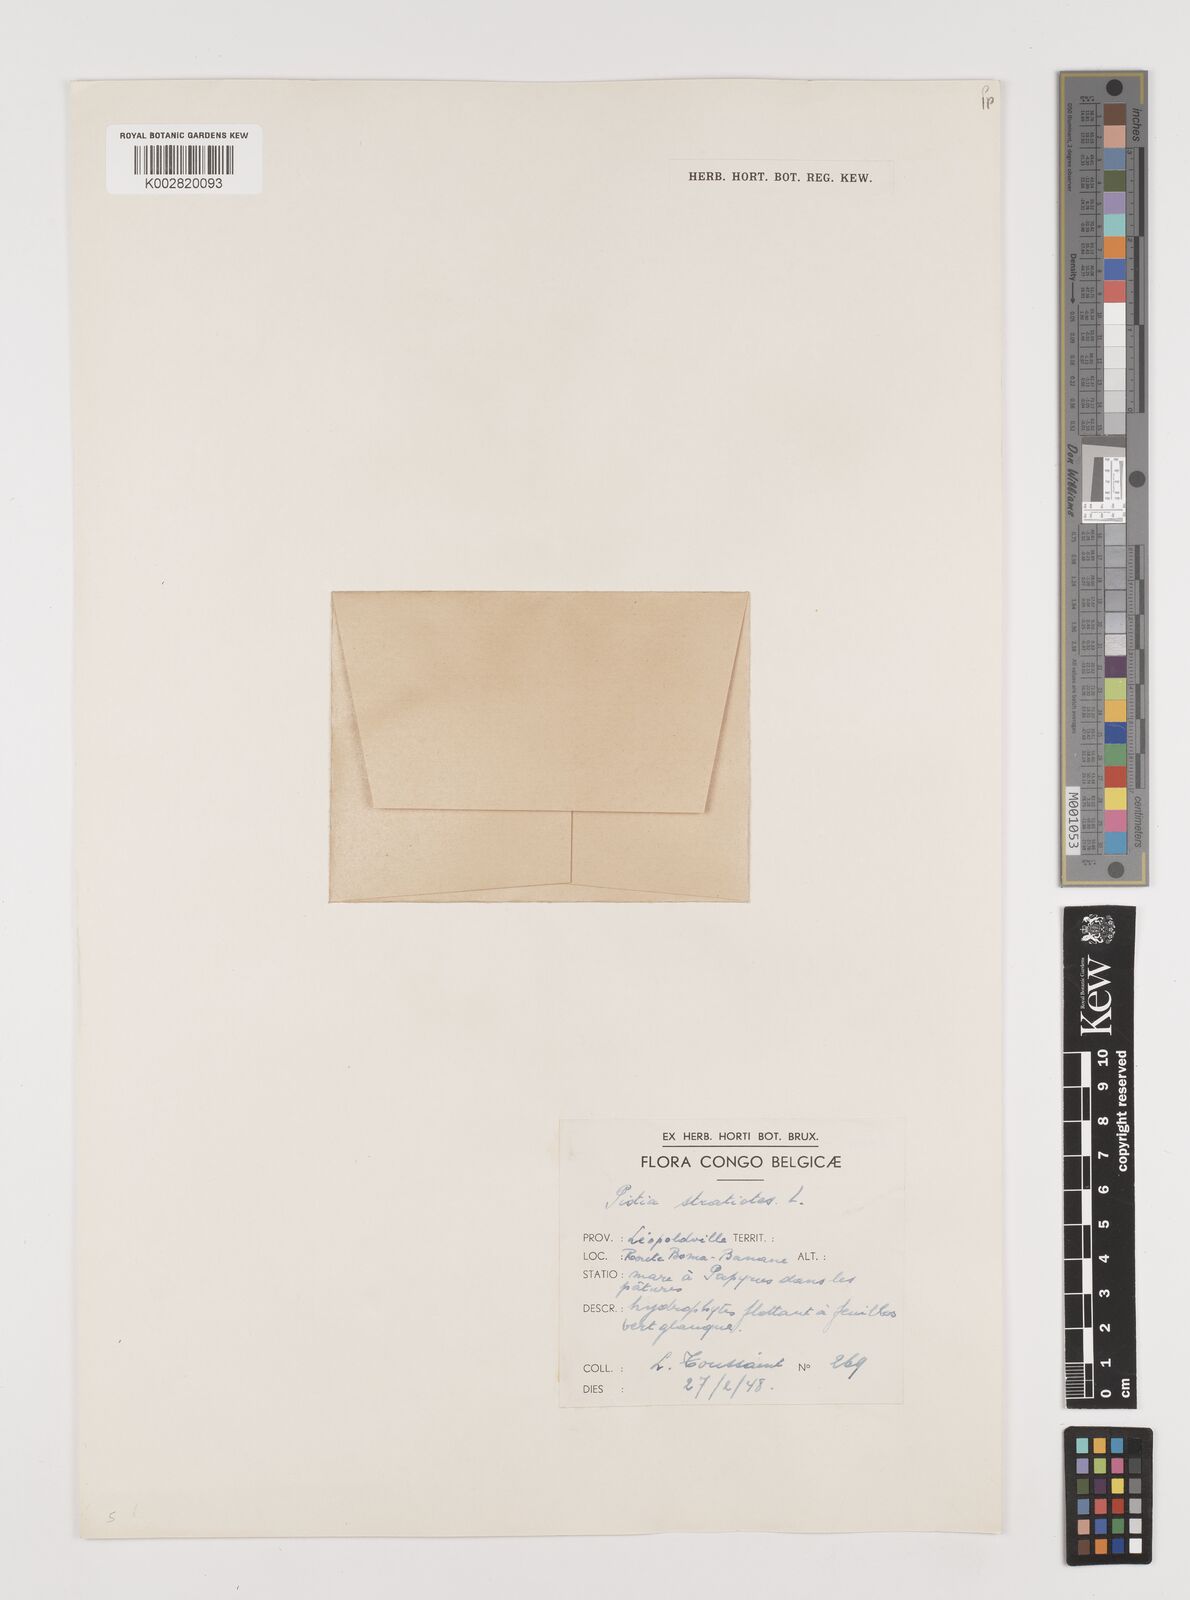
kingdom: Plantae
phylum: Tracheophyta
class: Liliopsida
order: Alismatales
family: Araceae
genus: Pistia
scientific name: Pistia stratiotes
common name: Water lettuce
